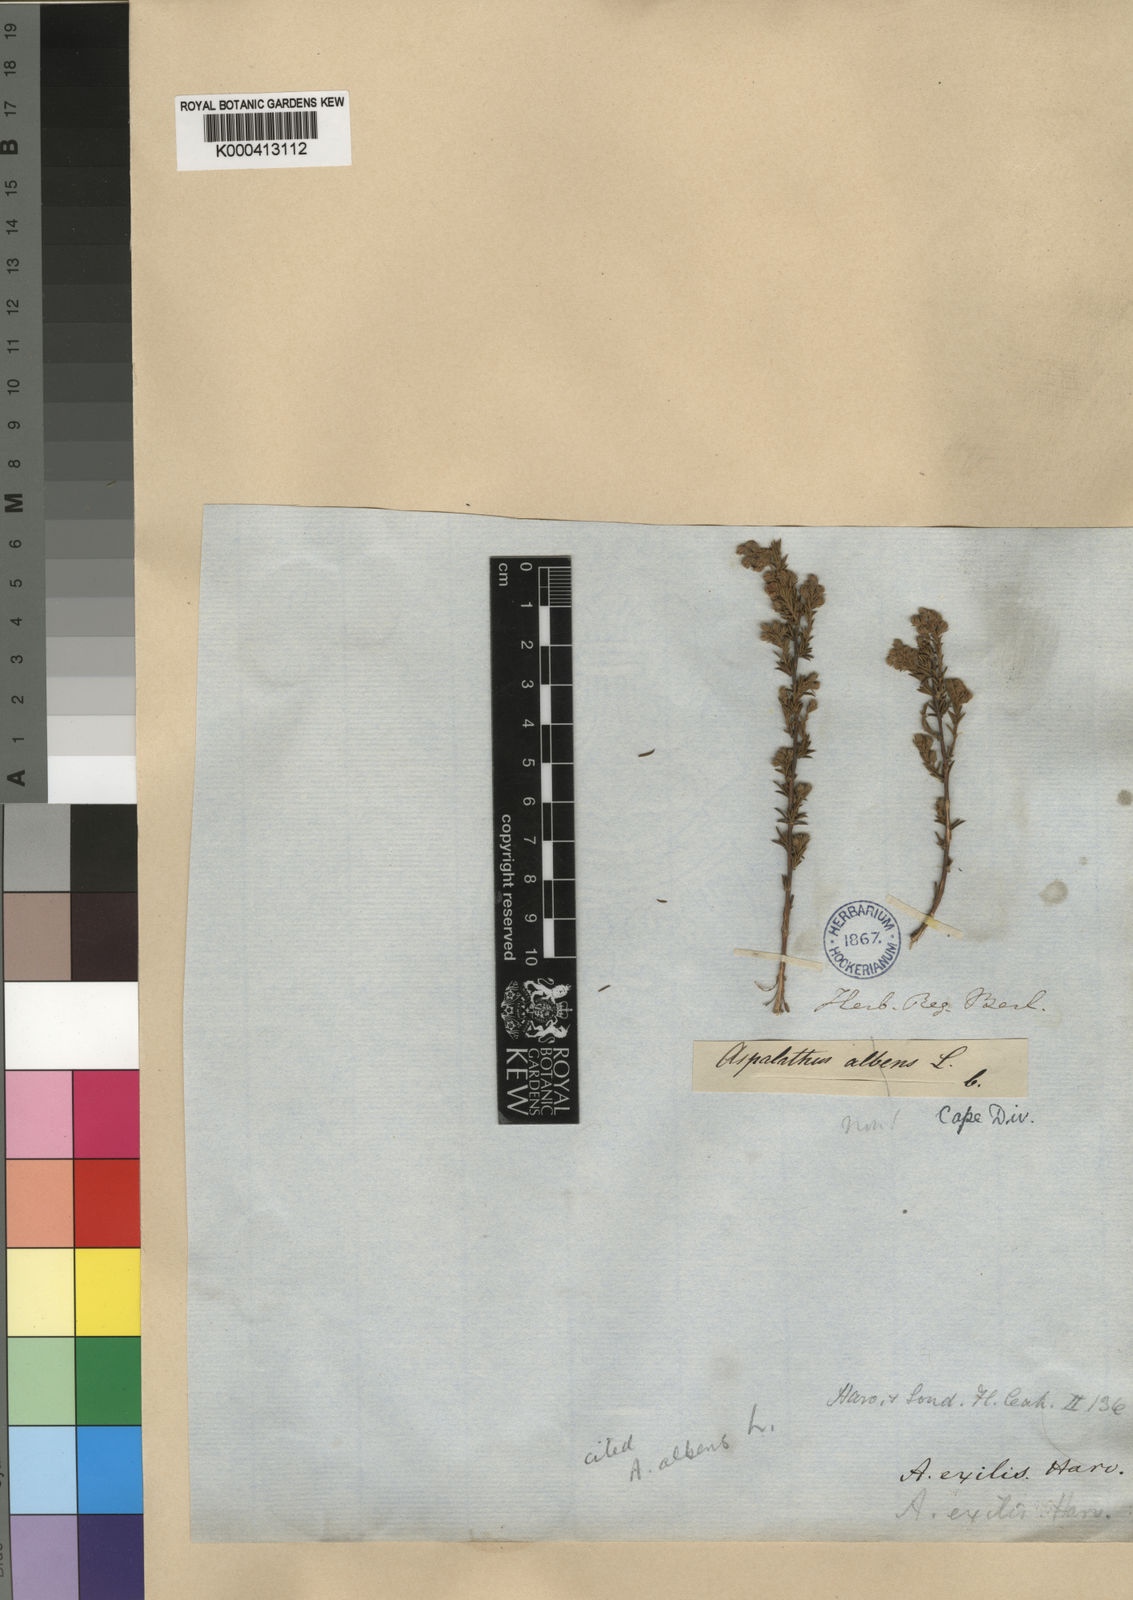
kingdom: Plantae
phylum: Tracheophyta
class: Magnoliopsida
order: Fabales
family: Fabaceae
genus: Aspalathus
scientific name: Aspalathus albens
